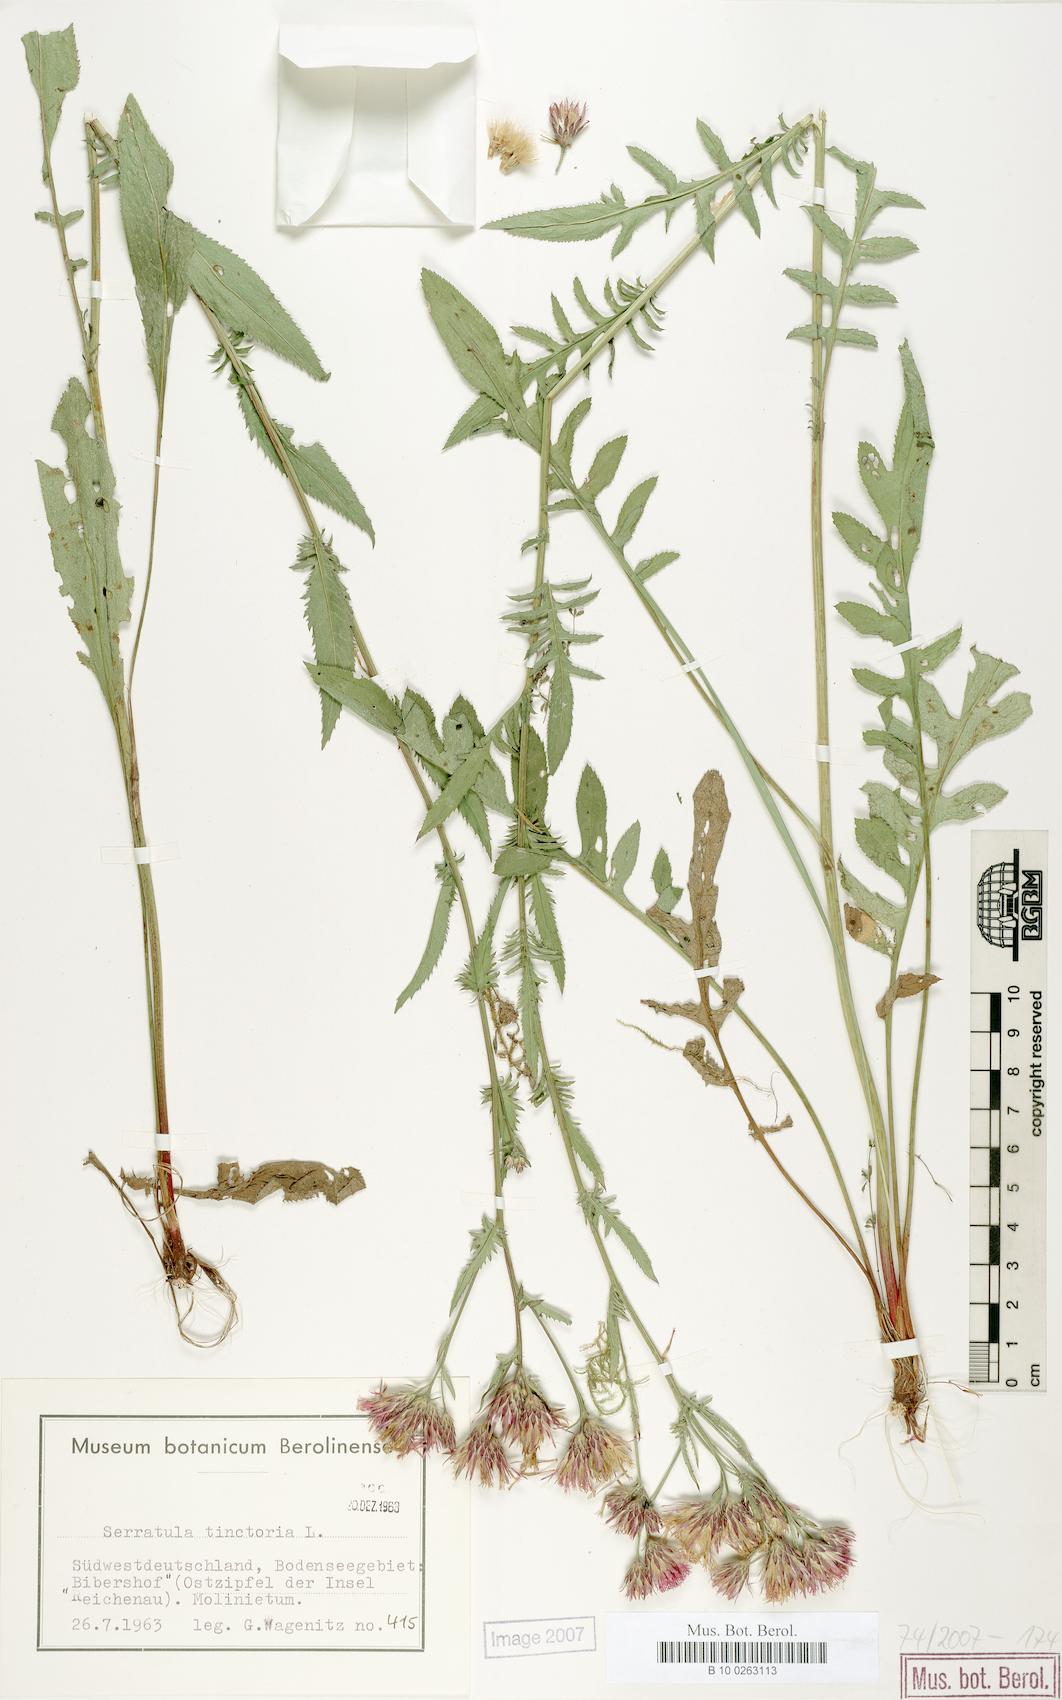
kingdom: Plantae
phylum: Tracheophyta
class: Magnoliopsida
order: Asterales
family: Asteraceae
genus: Serratula
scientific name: Serratula tinctoria
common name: Saw-wort
